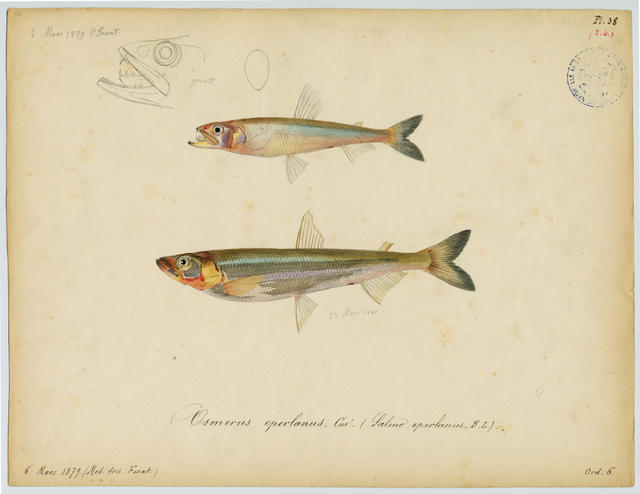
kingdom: Animalia
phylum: Chordata
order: Osmeriformes
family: Osmeridae
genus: Osmerus
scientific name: Osmerus eperlanus
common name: Smelt
